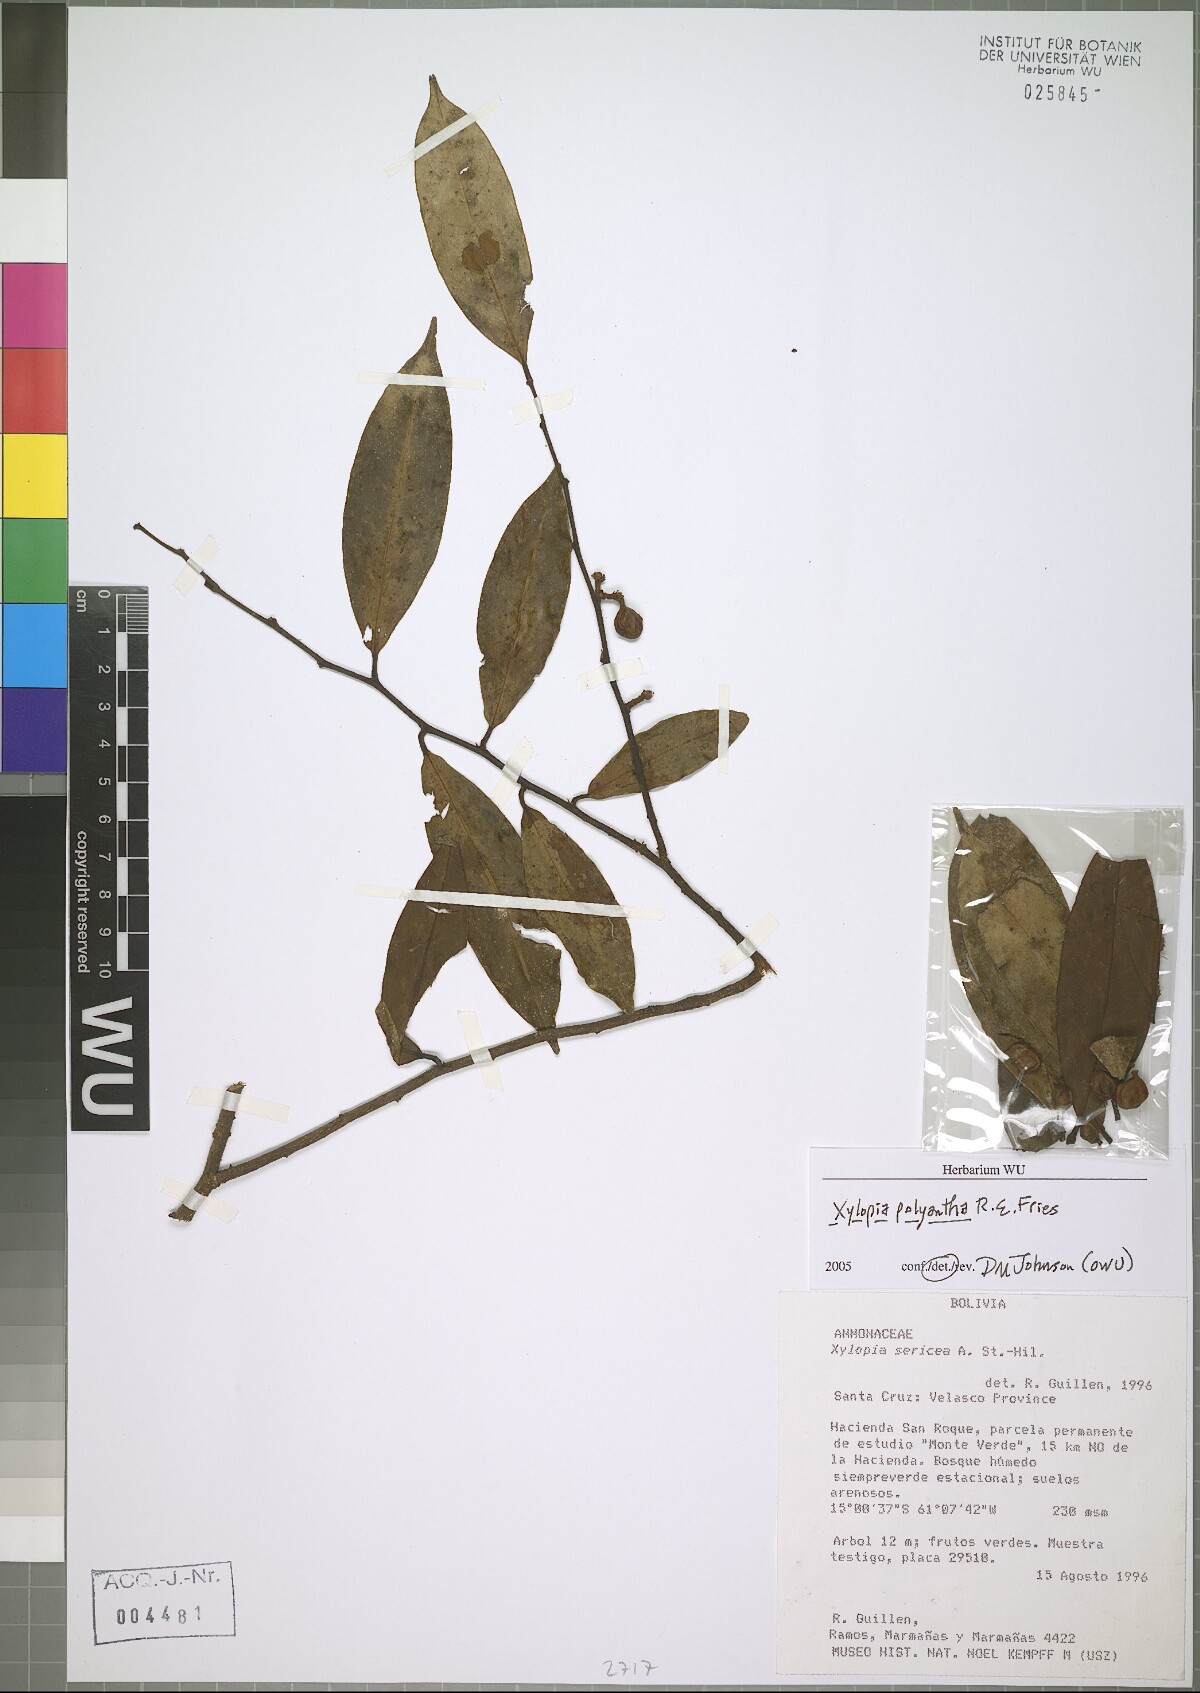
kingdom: Plantae
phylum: Tracheophyta
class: Magnoliopsida
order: Magnoliales
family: Annonaceae
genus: Xylopia
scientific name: Xylopia polyantha
